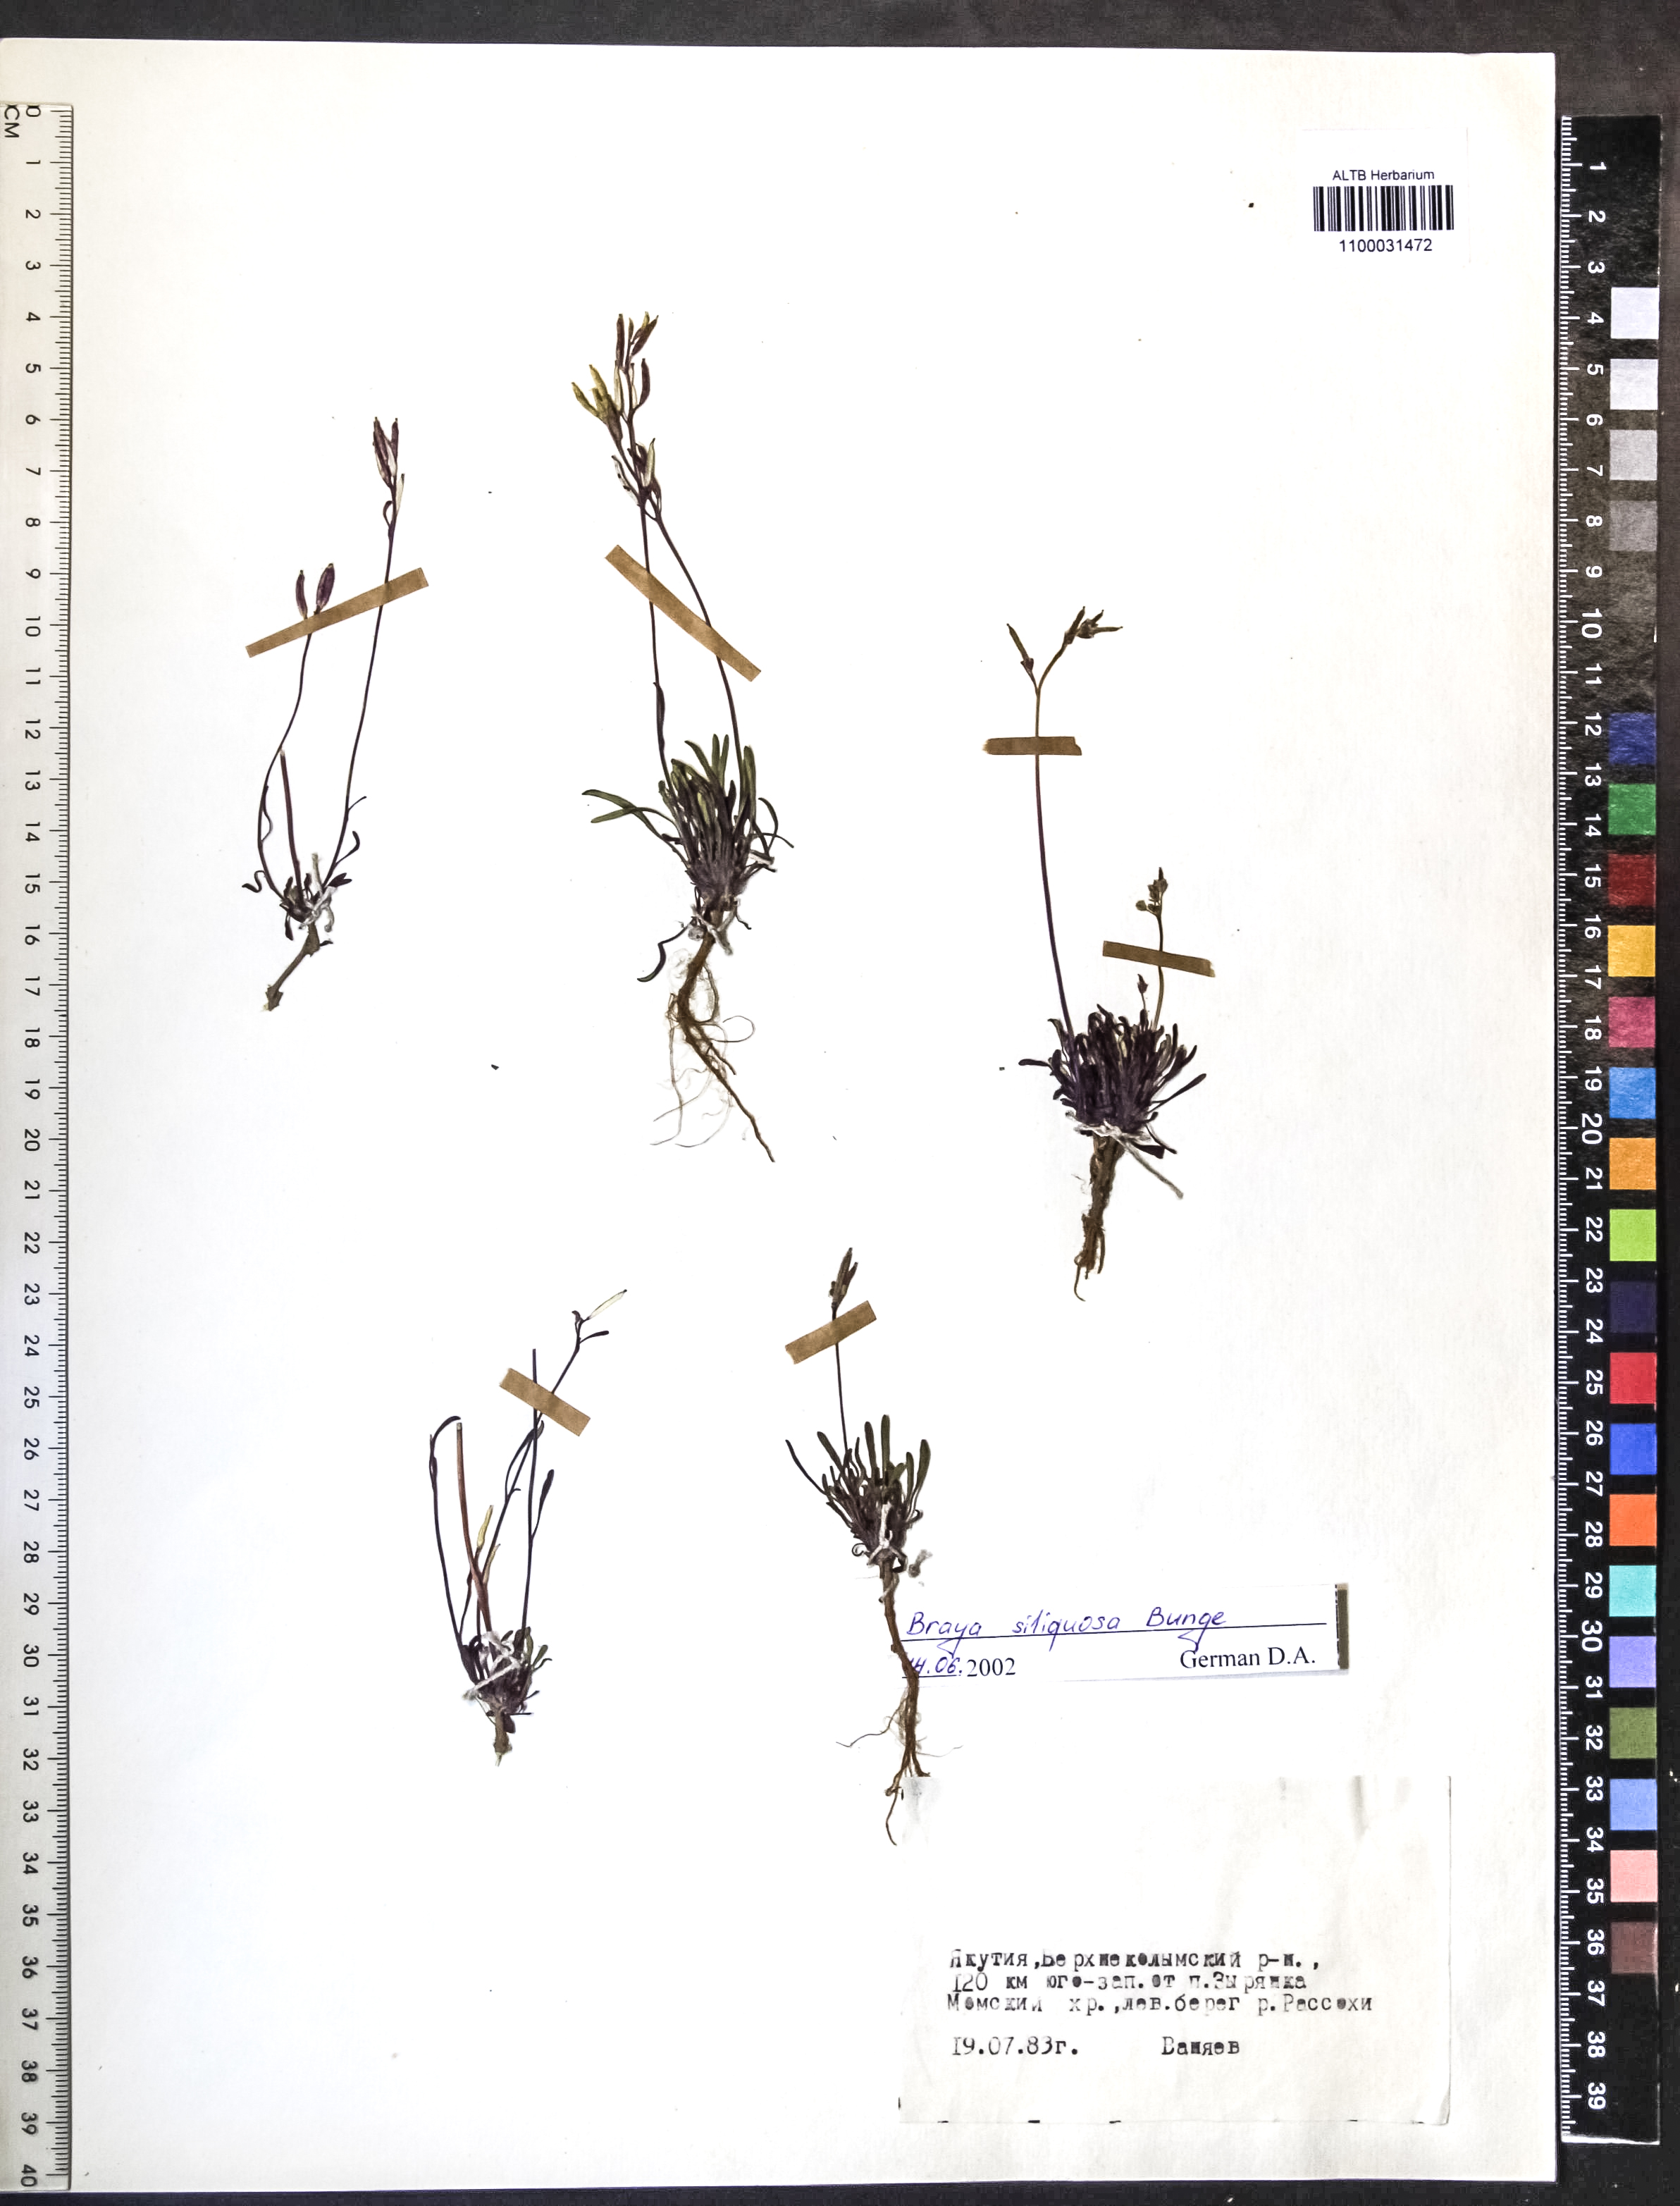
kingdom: Plantae
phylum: Tracheophyta
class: Magnoliopsida
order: Brassicales
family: Brassicaceae
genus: Braya
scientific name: Braya siliquosa
